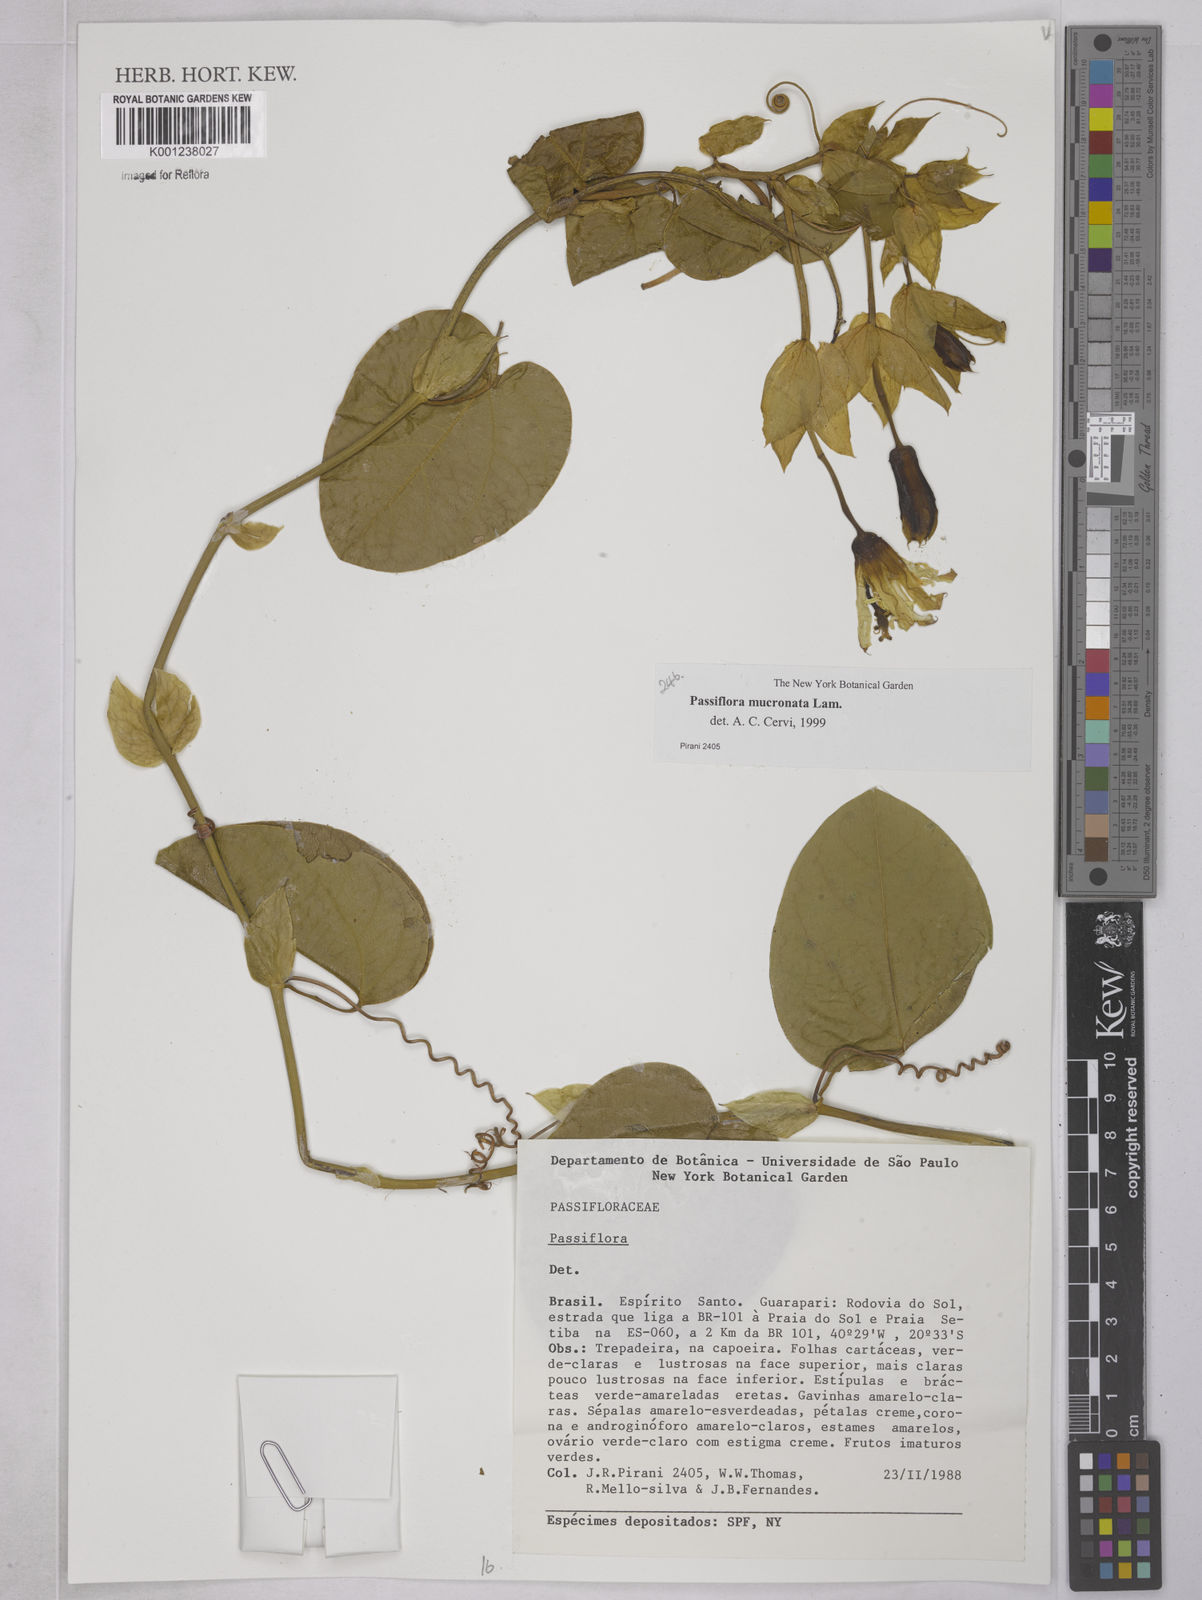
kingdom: Plantae
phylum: Tracheophyta
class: Magnoliopsida
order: Malpighiales
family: Passifloraceae
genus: Passiflora
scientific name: Passiflora mucronata
